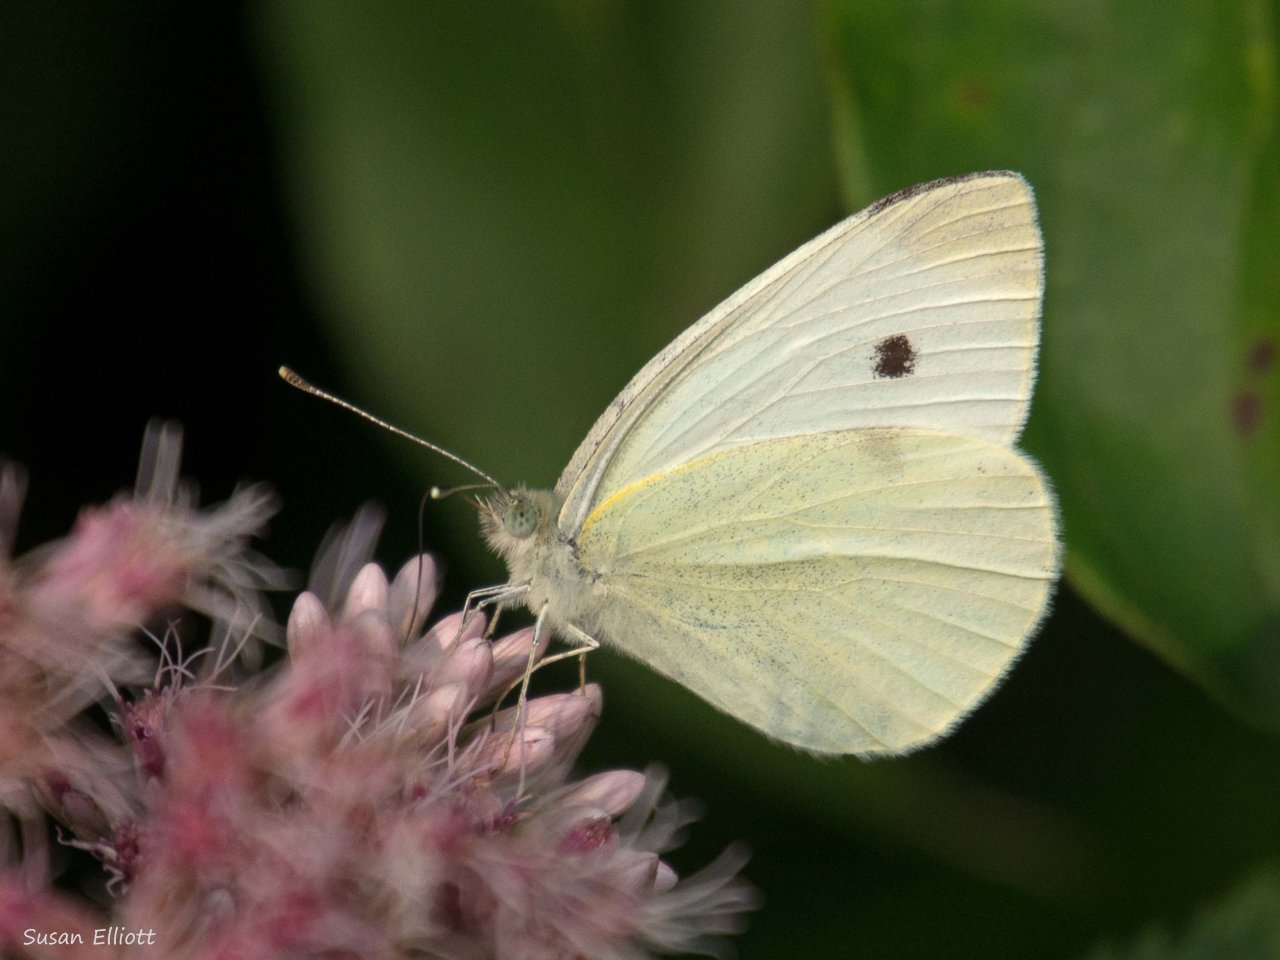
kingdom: Animalia
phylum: Arthropoda
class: Insecta
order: Lepidoptera
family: Pieridae
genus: Pieris
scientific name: Pieris rapae
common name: Cabbage White
